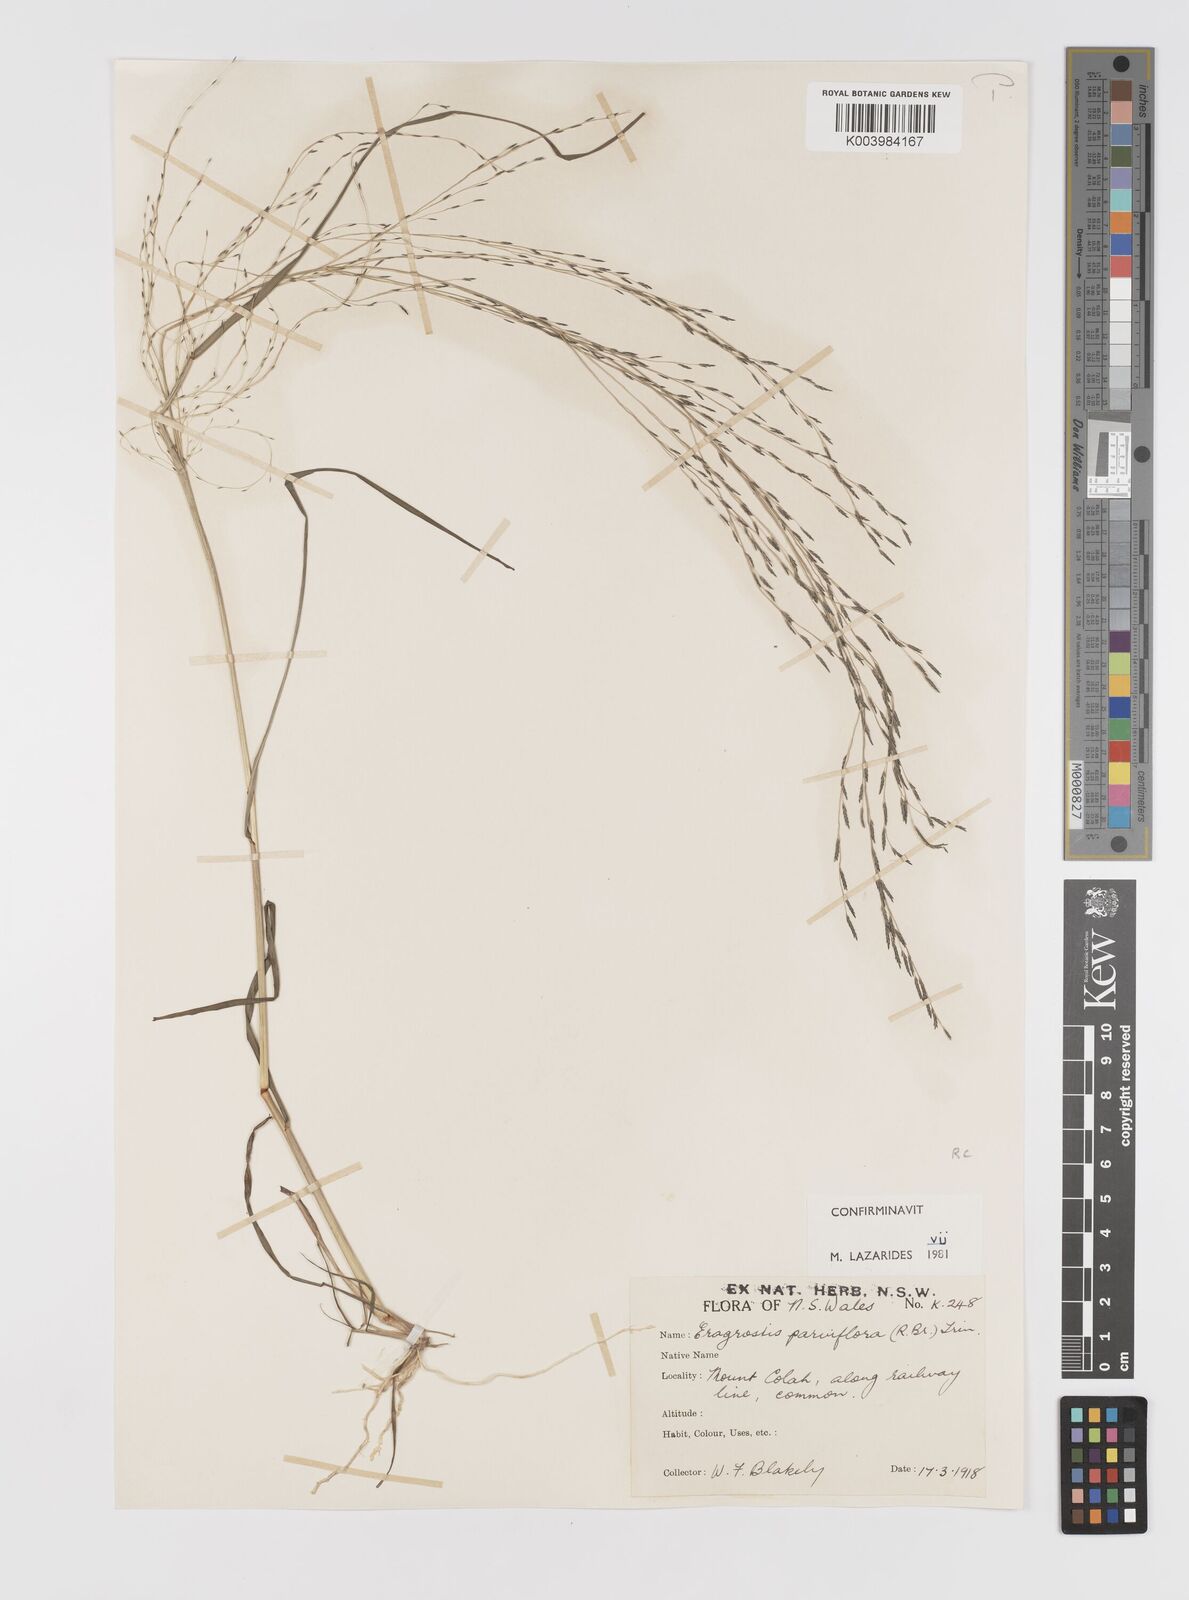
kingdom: Plantae
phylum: Tracheophyta
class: Liliopsida
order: Poales
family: Poaceae
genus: Eragrostis
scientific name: Eragrostis parviflora
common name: Weeping love-grass
